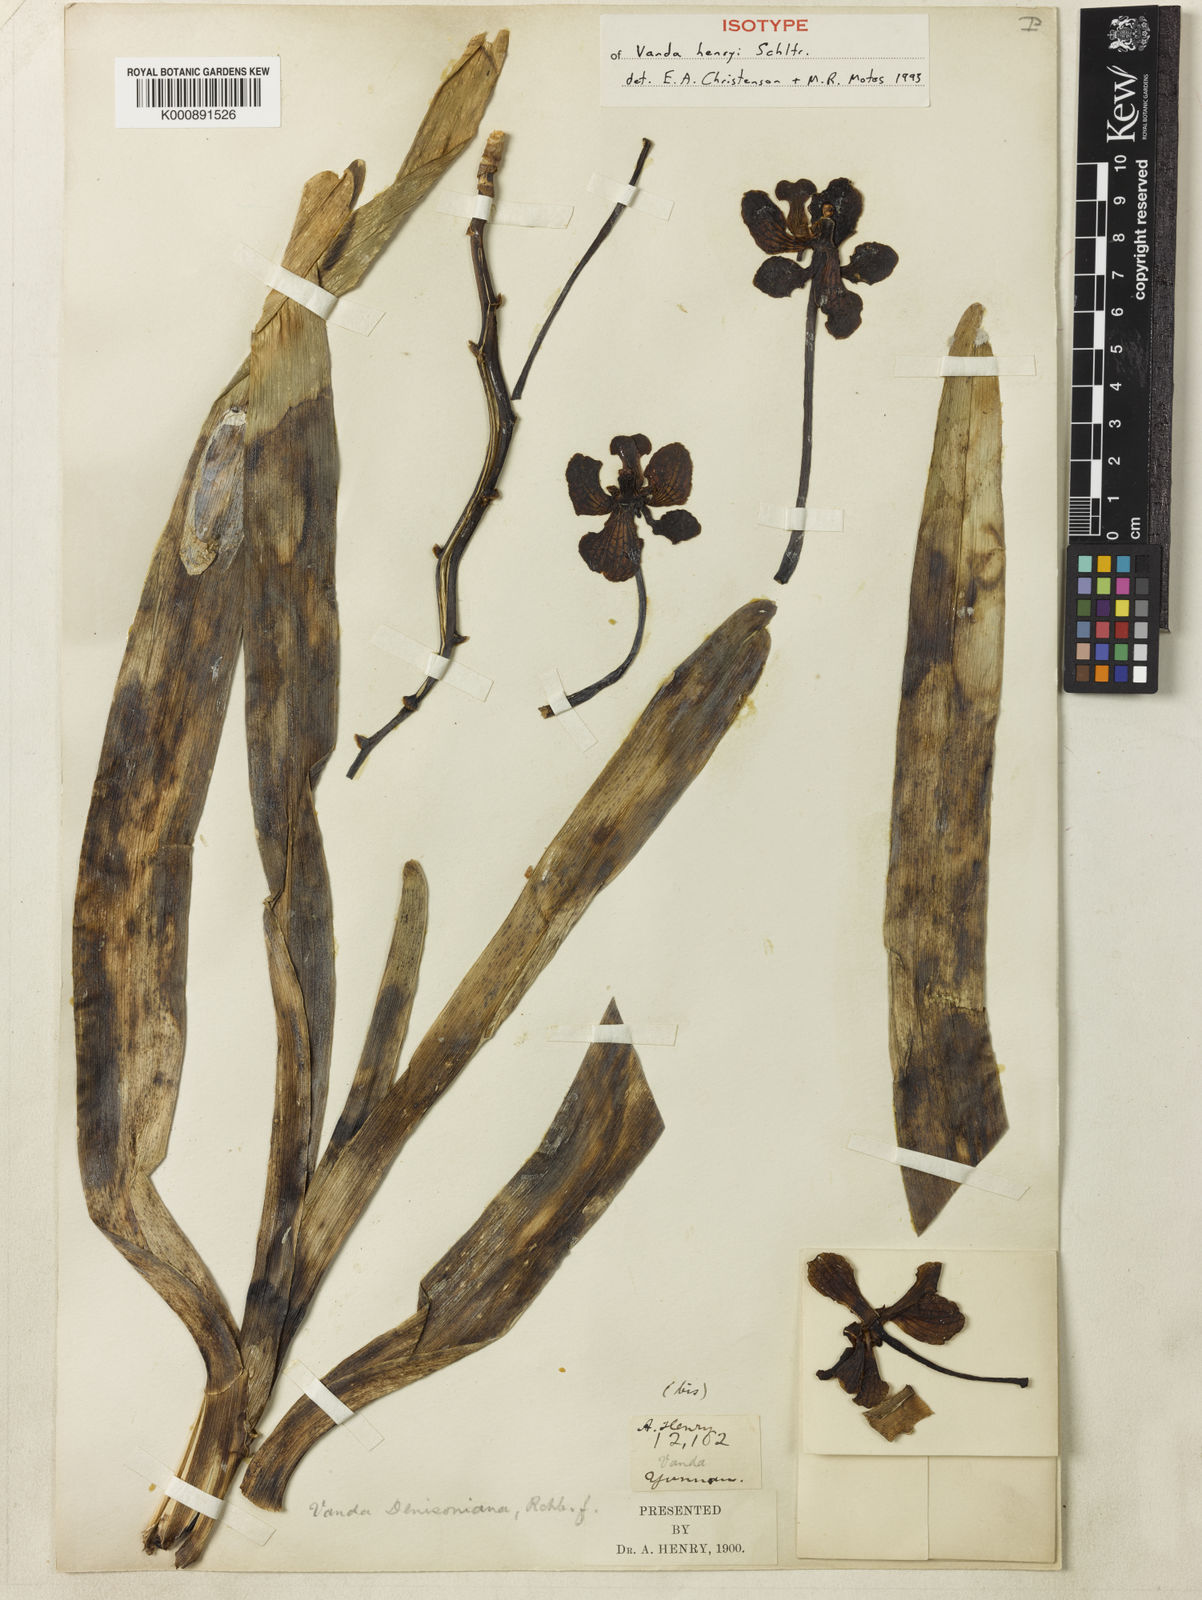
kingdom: Plantae
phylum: Tracheophyta
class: Liliopsida
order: Asparagales
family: Orchidaceae
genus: Vanda
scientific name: Vanda brunnea
